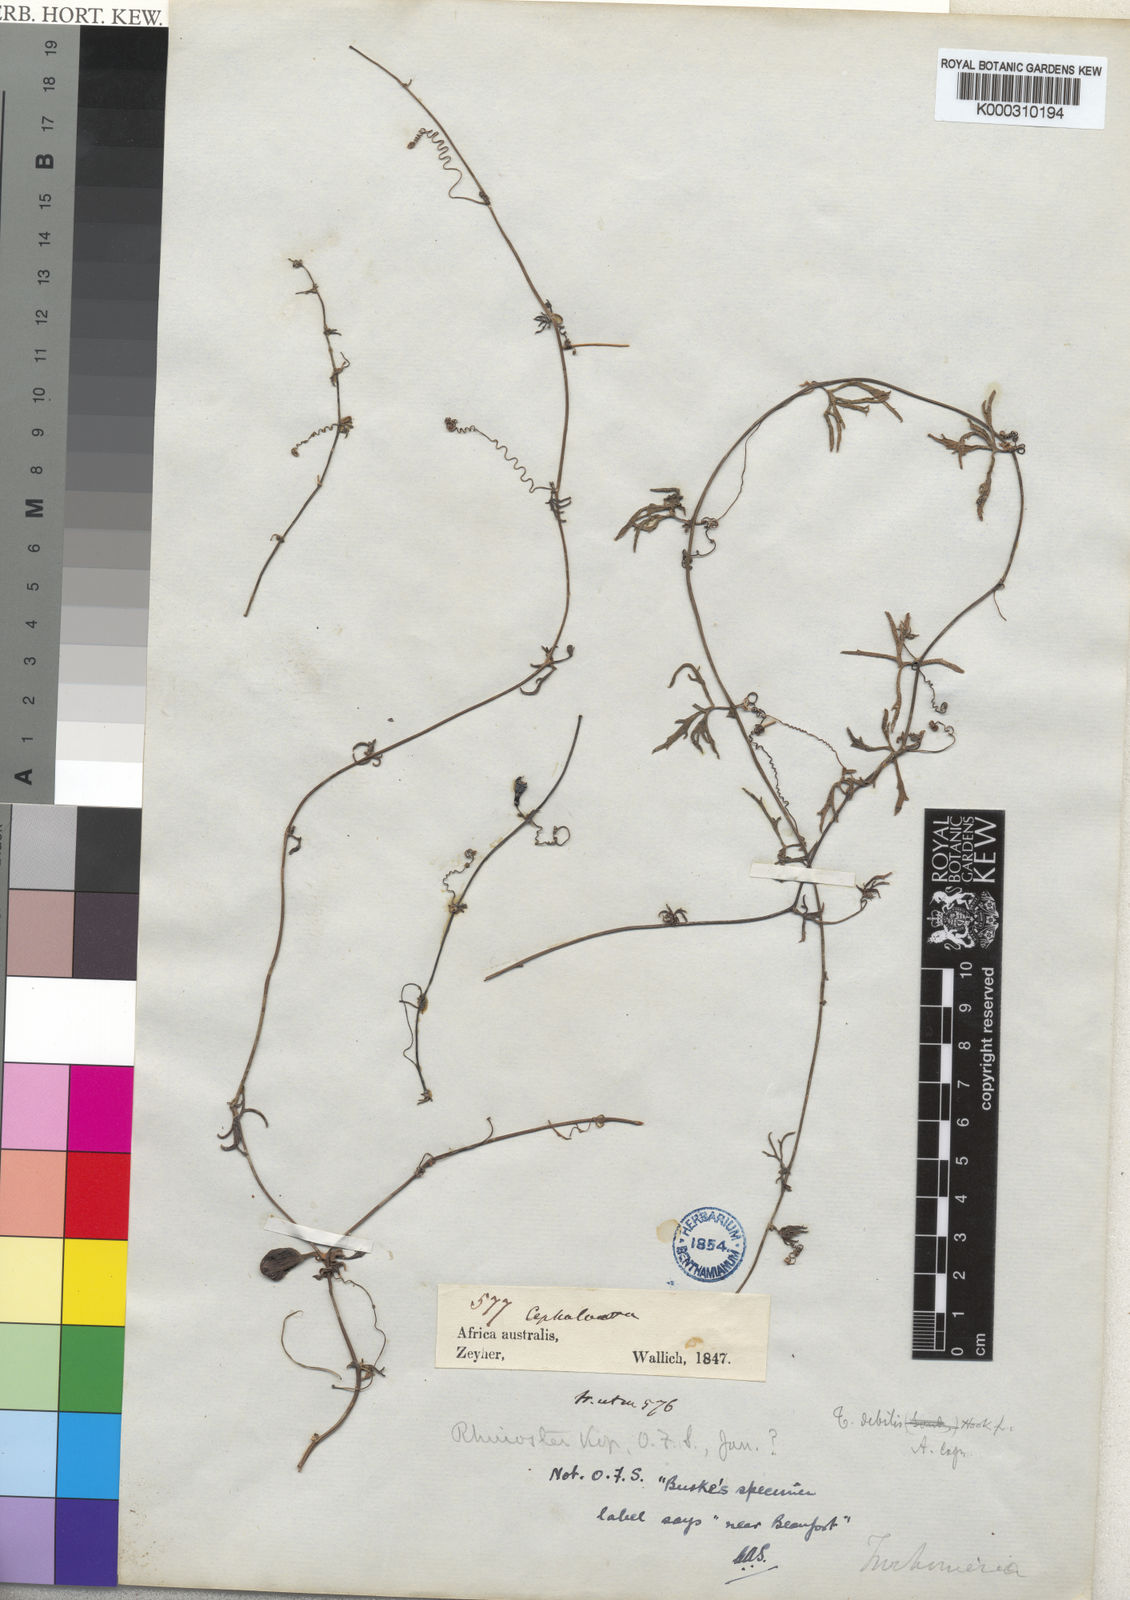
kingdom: Plantae
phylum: Tracheophyta
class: Magnoliopsida
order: Cucurbitales
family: Cucurbitaceae
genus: Trochomeria
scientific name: Trochomeria debilis
